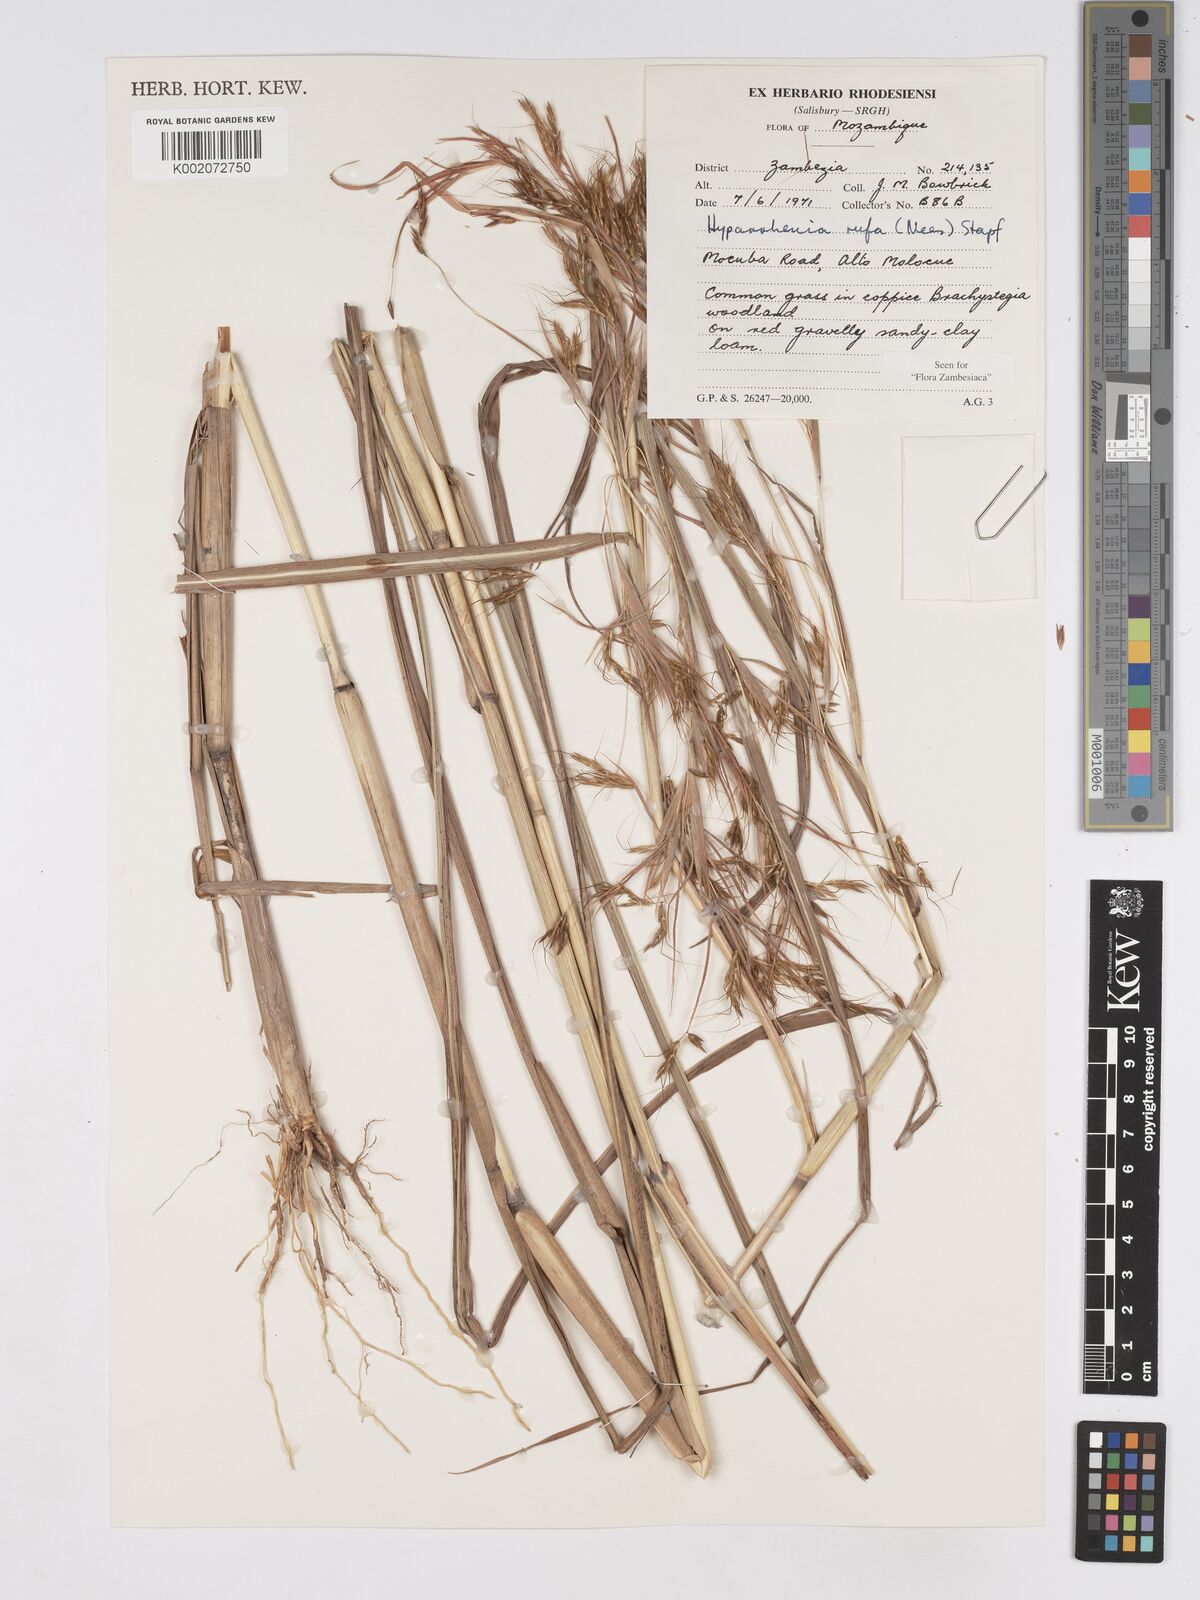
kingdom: Plantae
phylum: Tracheophyta
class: Liliopsida
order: Poales
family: Poaceae
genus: Hyparrhenia
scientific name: Hyparrhenia rufa
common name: Jaraguagrass
